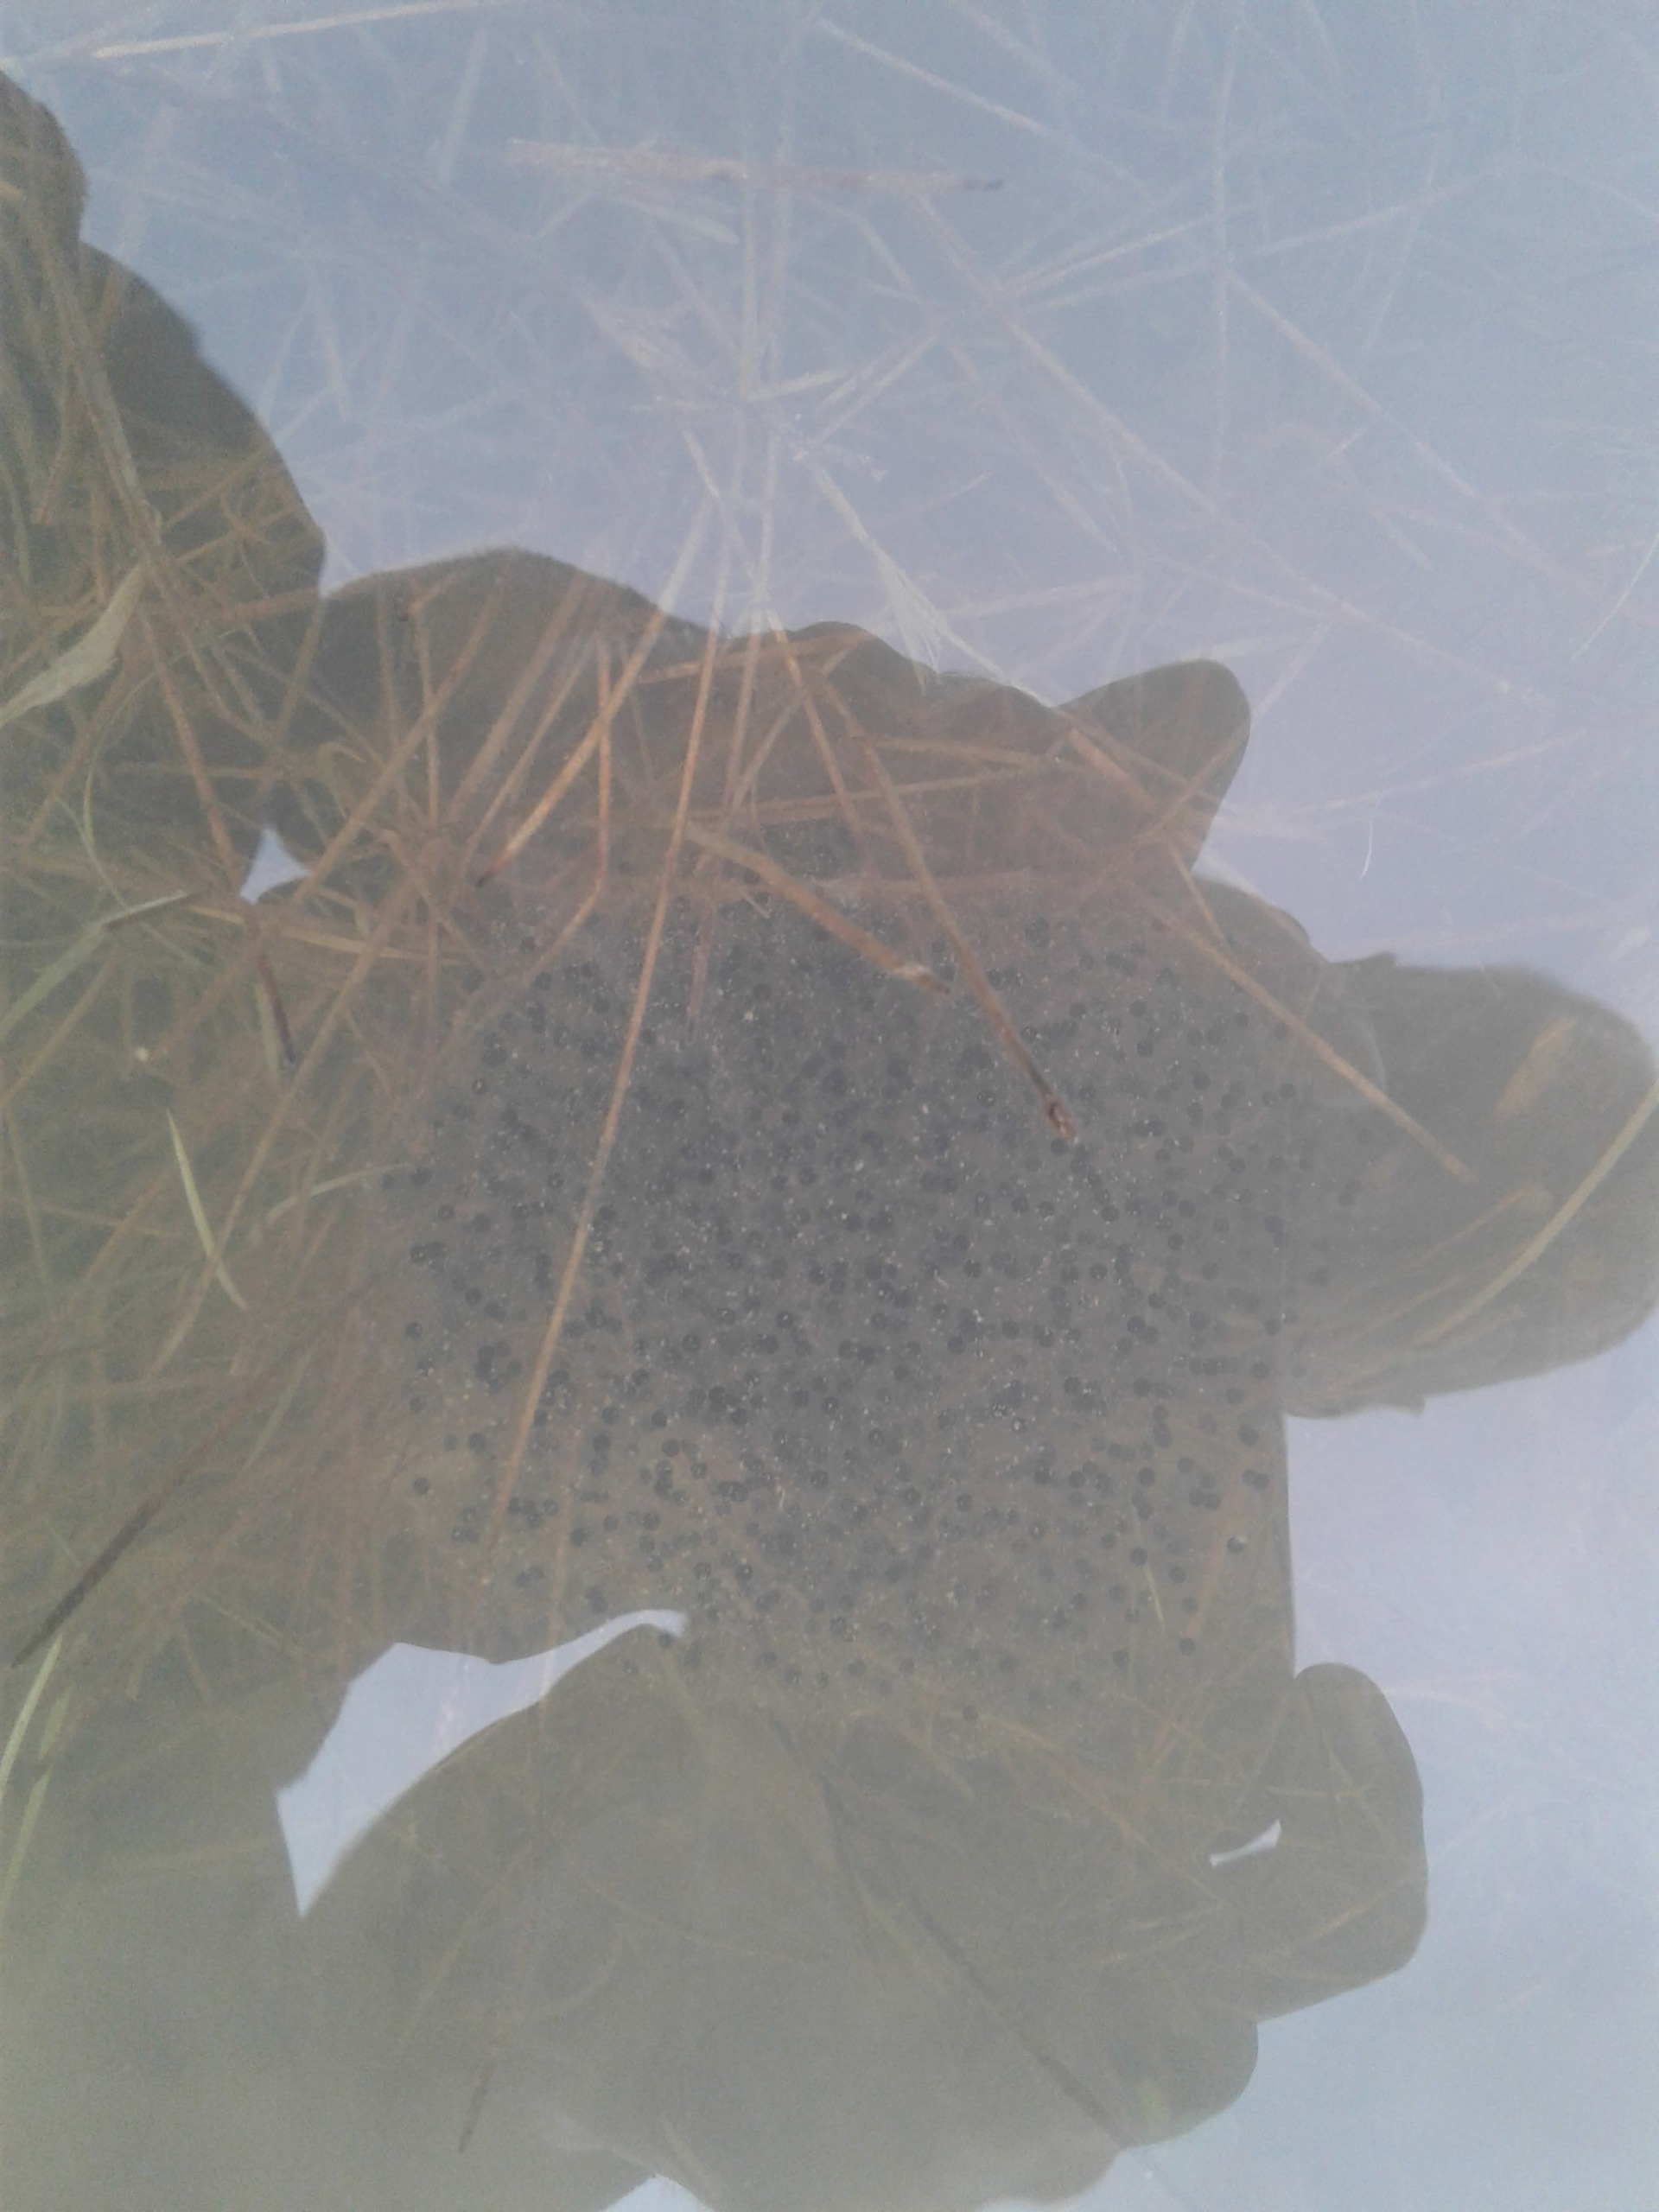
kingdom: Animalia
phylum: Chordata
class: Amphibia
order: Anura
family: Ranidae
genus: Rana
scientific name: Rana dalmatina
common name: Springfrø
